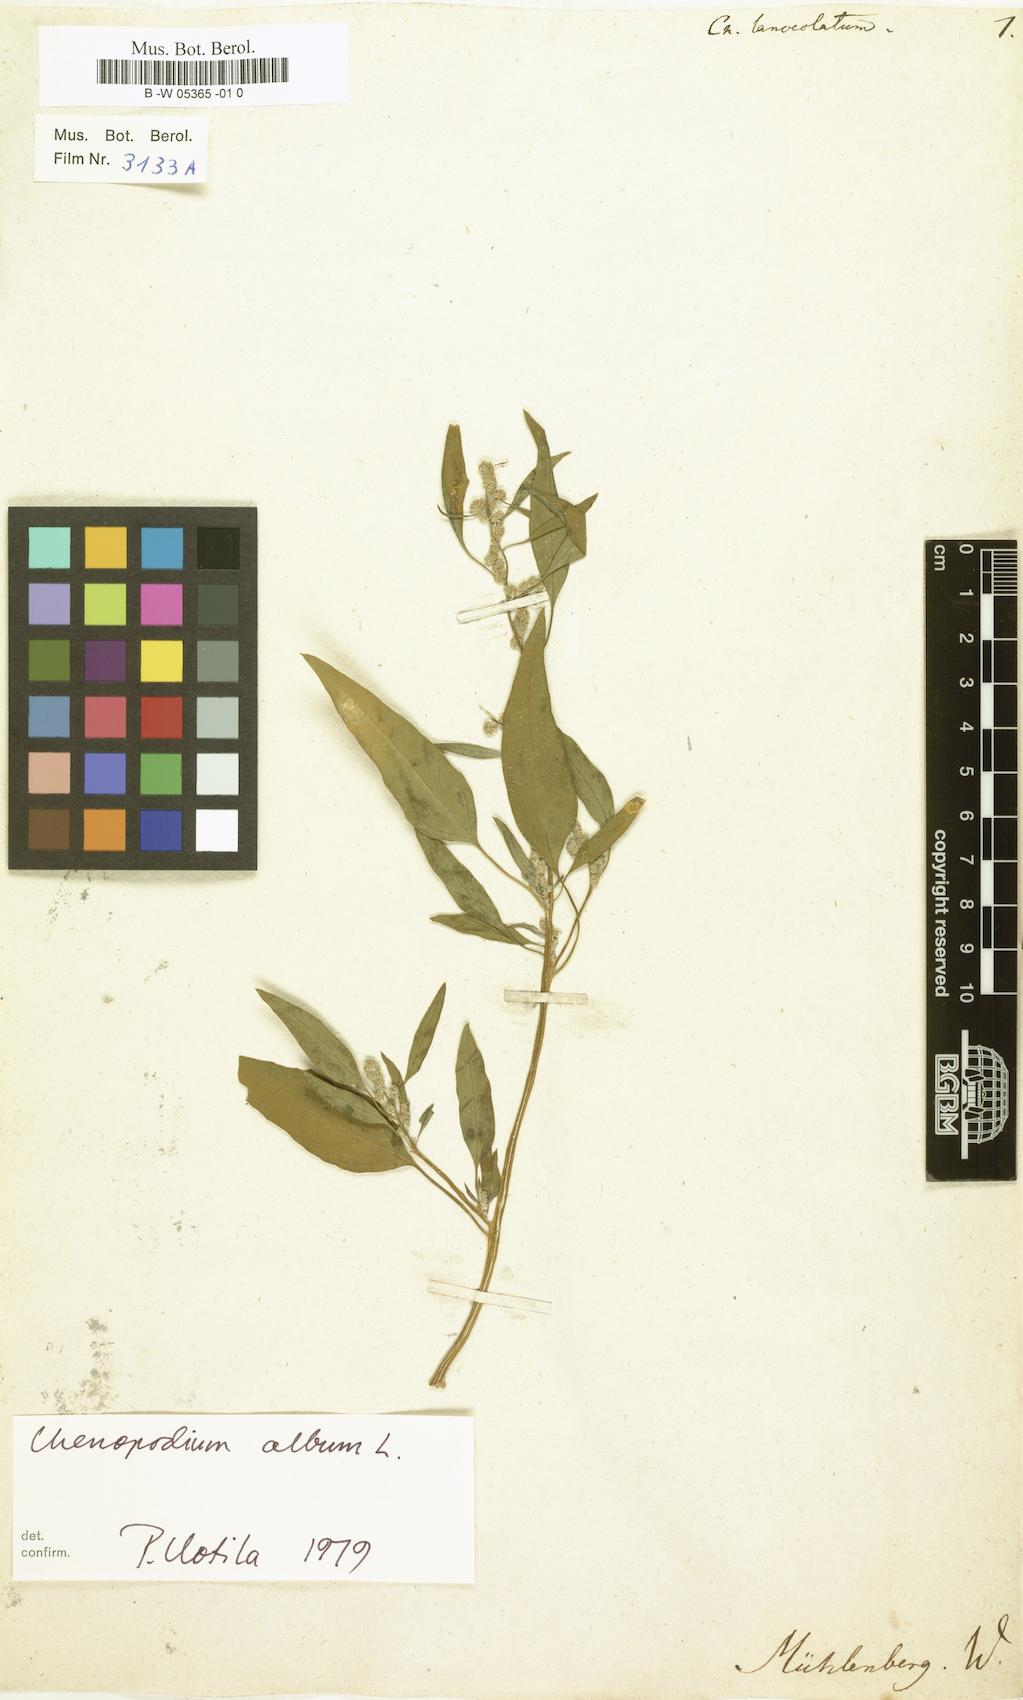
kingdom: Plantae
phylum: Tracheophyta
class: Magnoliopsida
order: Caryophyllales
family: Amaranthaceae
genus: Chenopodium
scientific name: Chenopodium album
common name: Fat-hen
